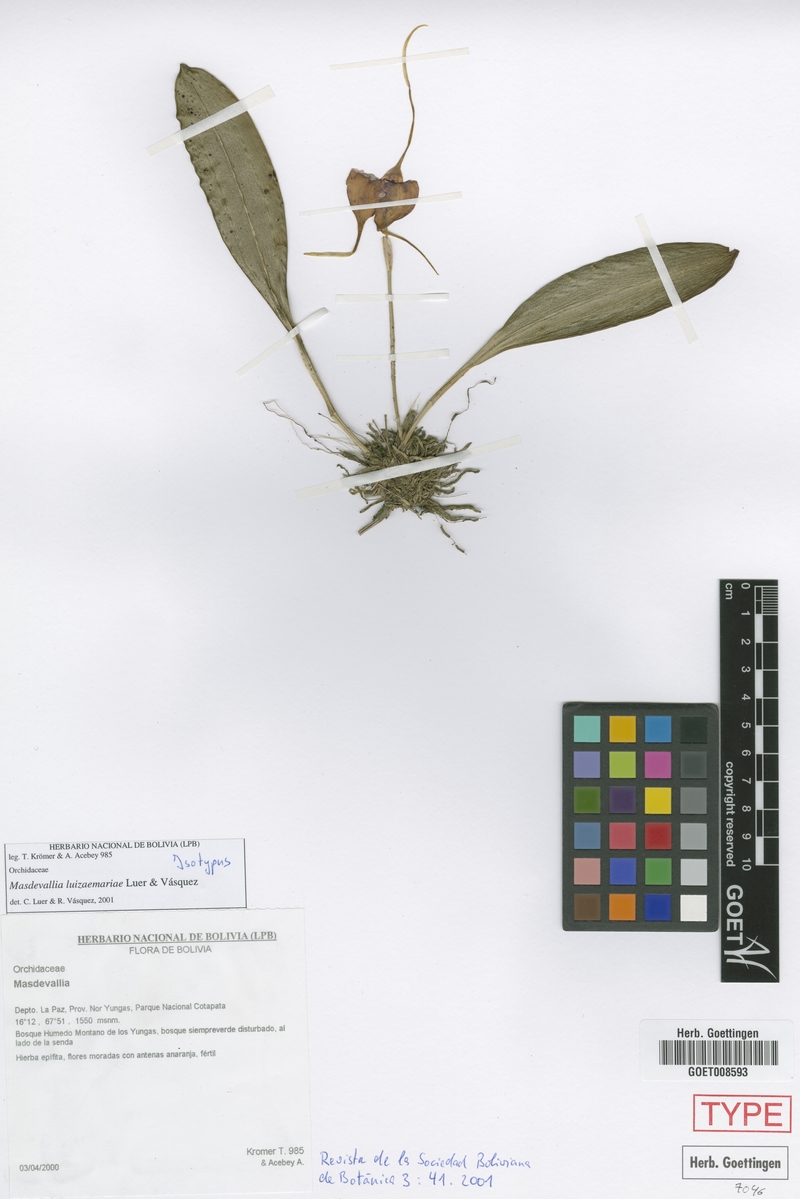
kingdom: Plantae
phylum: Tracheophyta
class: Liliopsida
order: Asparagales
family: Orchidaceae
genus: Masdevallia
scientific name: Masdevallia luziaemariae
